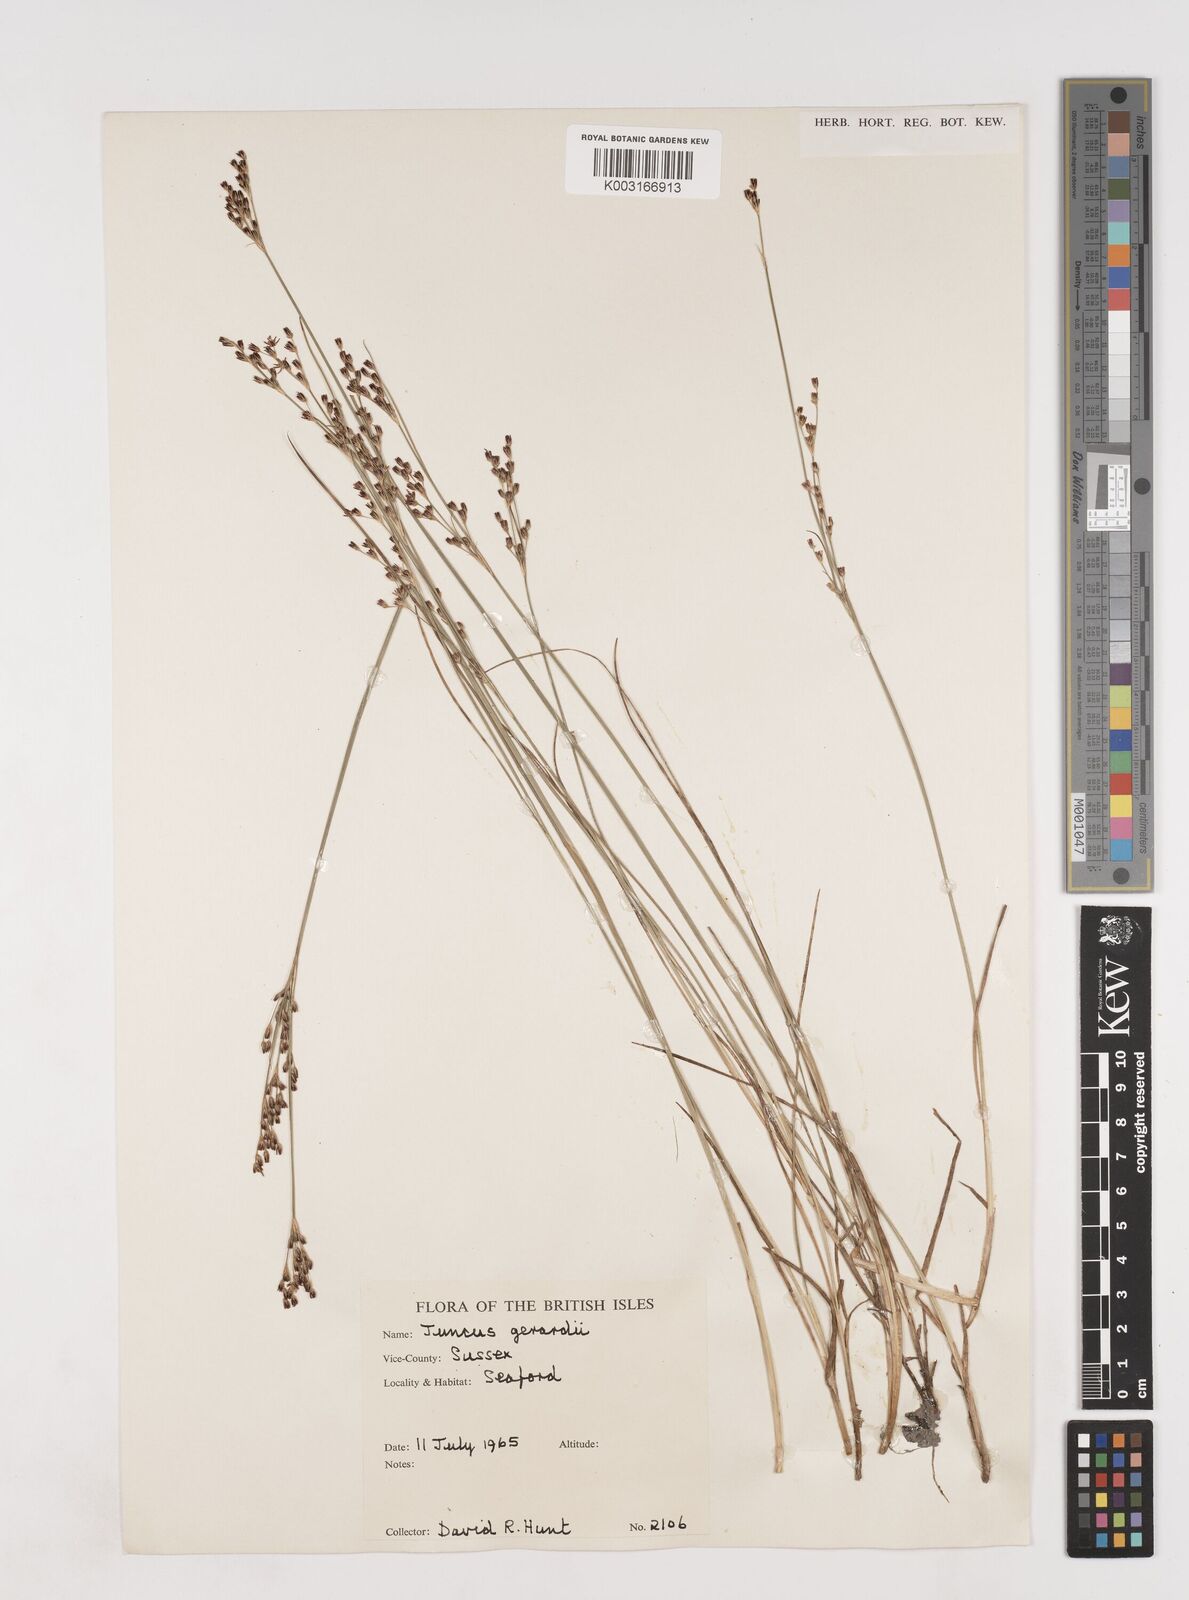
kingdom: Plantae
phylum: Tracheophyta
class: Liliopsida
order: Poales
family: Juncaceae
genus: Juncus
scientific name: Juncus gerardi
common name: Saltmarsh rush
